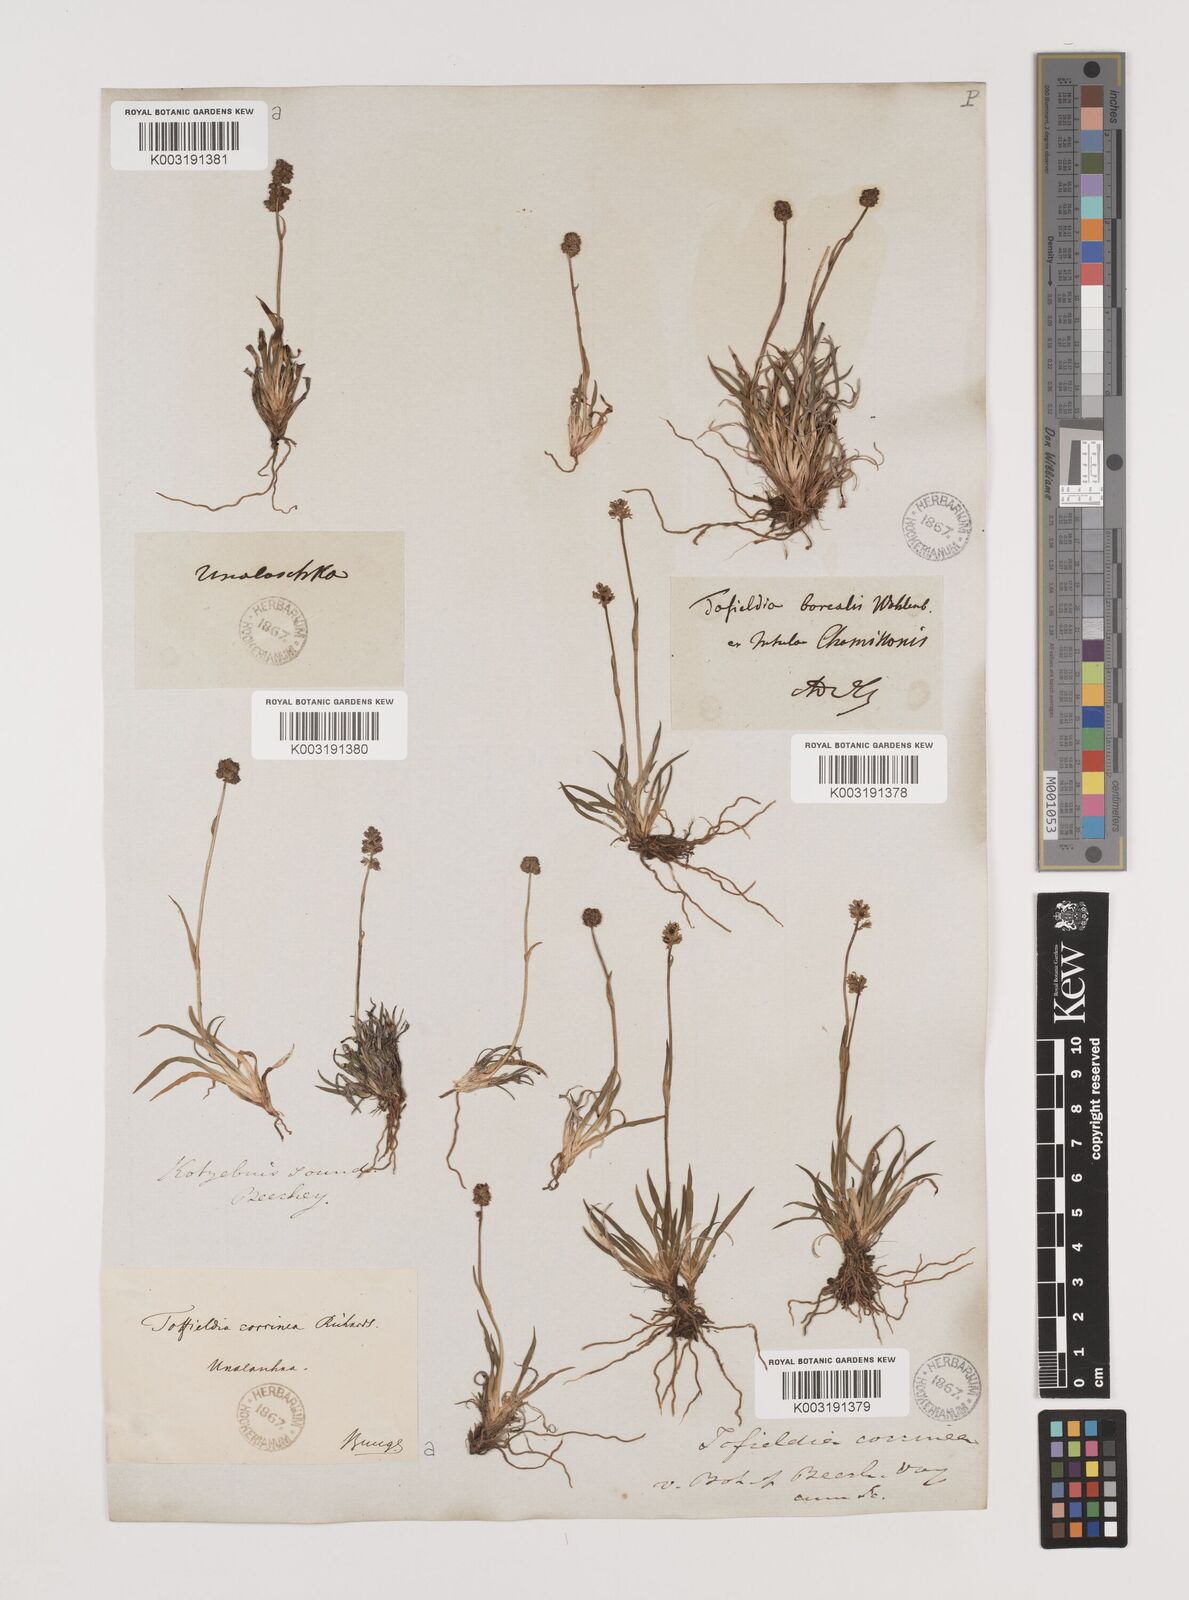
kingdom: Plantae
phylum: Tracheophyta
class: Liliopsida
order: Alismatales
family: Tofieldiaceae
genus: Tofieldia
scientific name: Tofieldia coccinea
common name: Northern false asphodel
